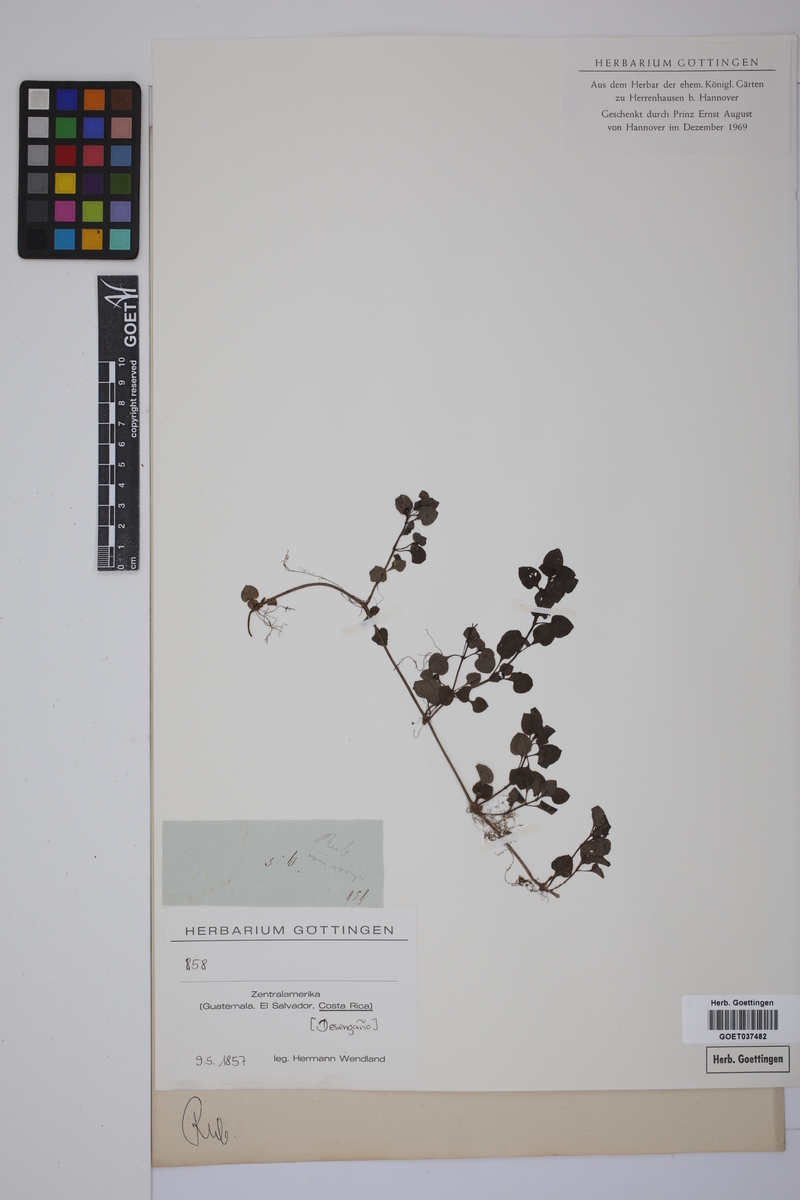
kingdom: Plantae
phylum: Tracheophyta
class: Magnoliopsida
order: Gentianales
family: Rubiaceae
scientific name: Rubiaceae
